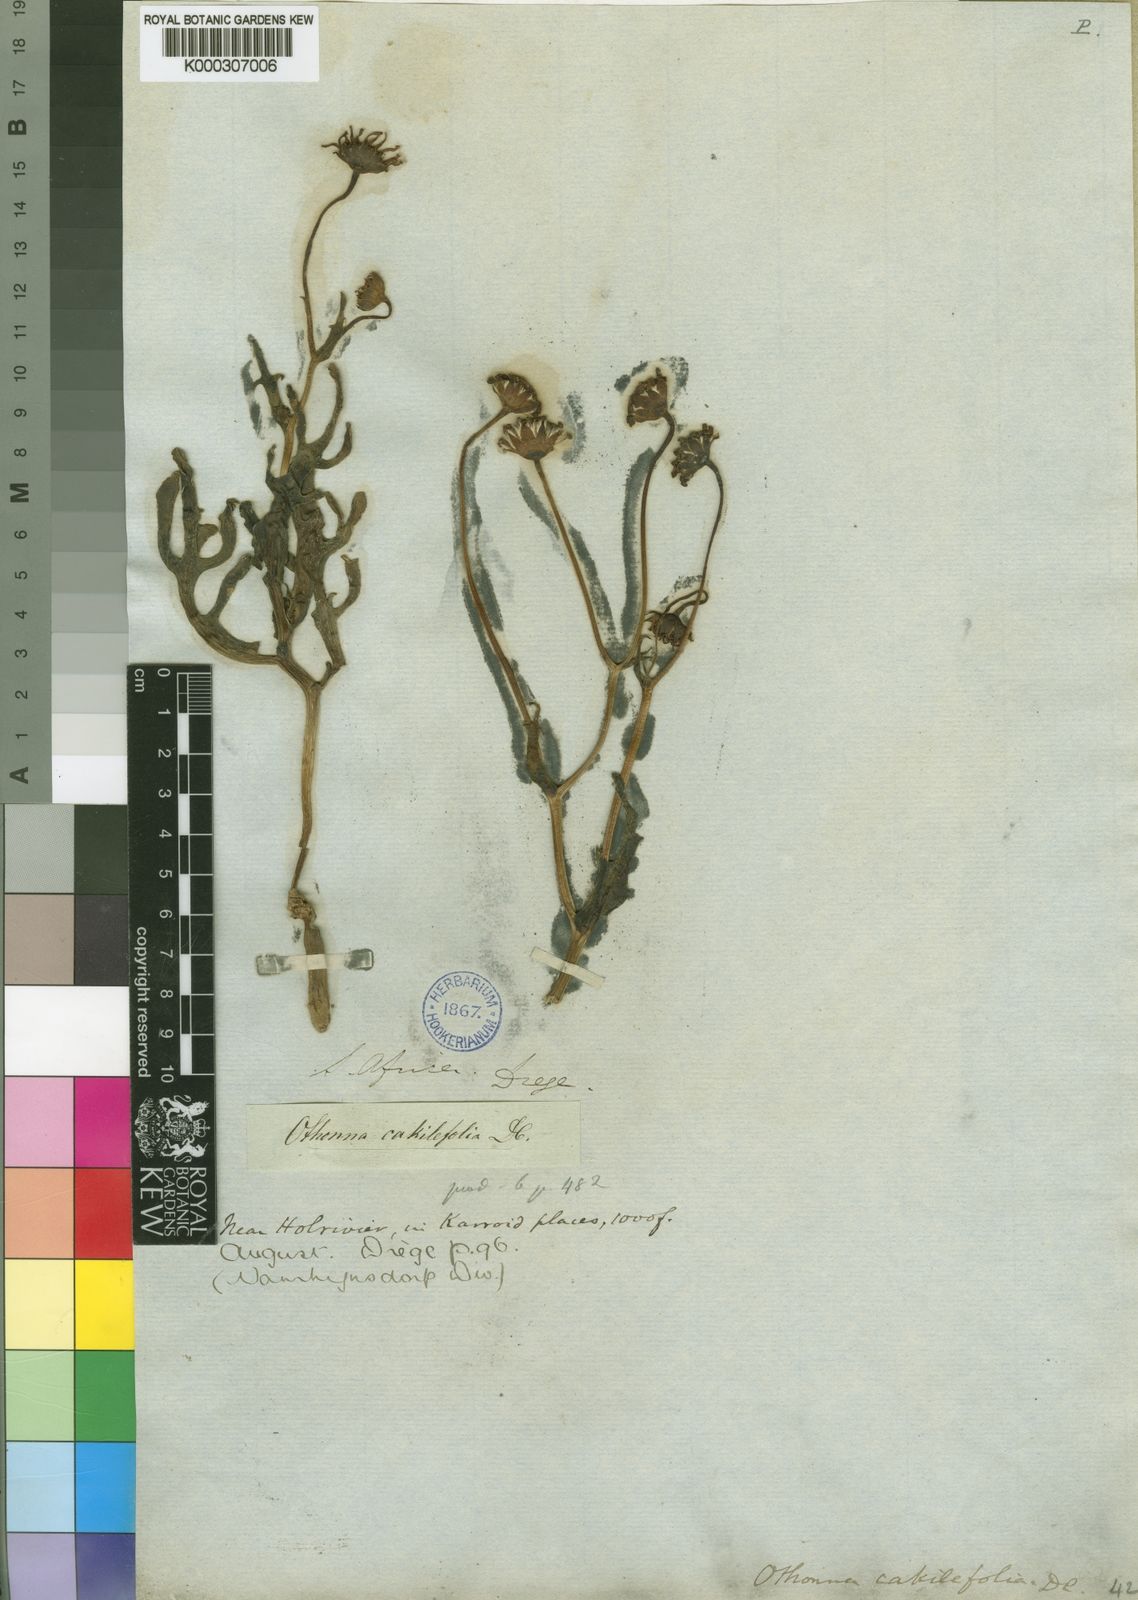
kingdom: Plantae
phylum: Tracheophyta
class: Magnoliopsida
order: Asterales
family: Asteraceae
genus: Othonna
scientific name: Othonna cakilefolia
